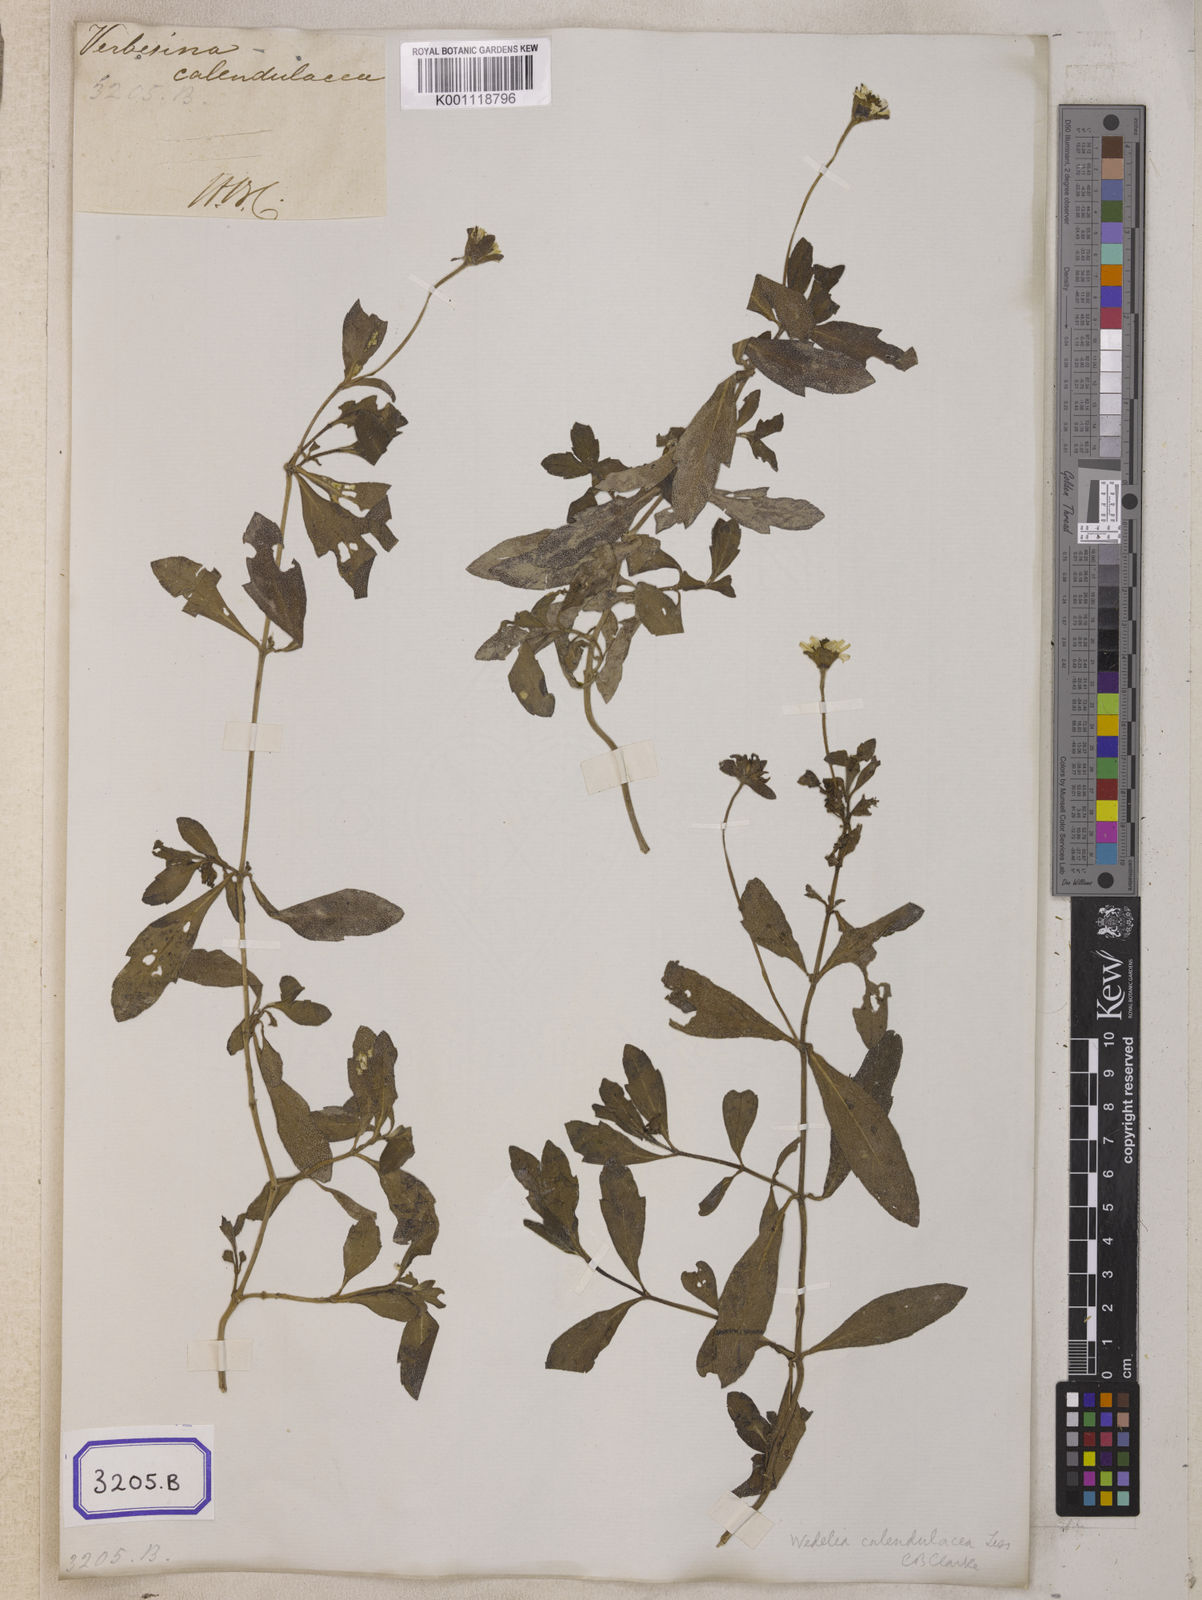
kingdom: Plantae
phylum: Tracheophyta
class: Magnoliopsida
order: Asterales
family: Asteraceae
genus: Sphagneticola
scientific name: Sphagneticola calendulacea
